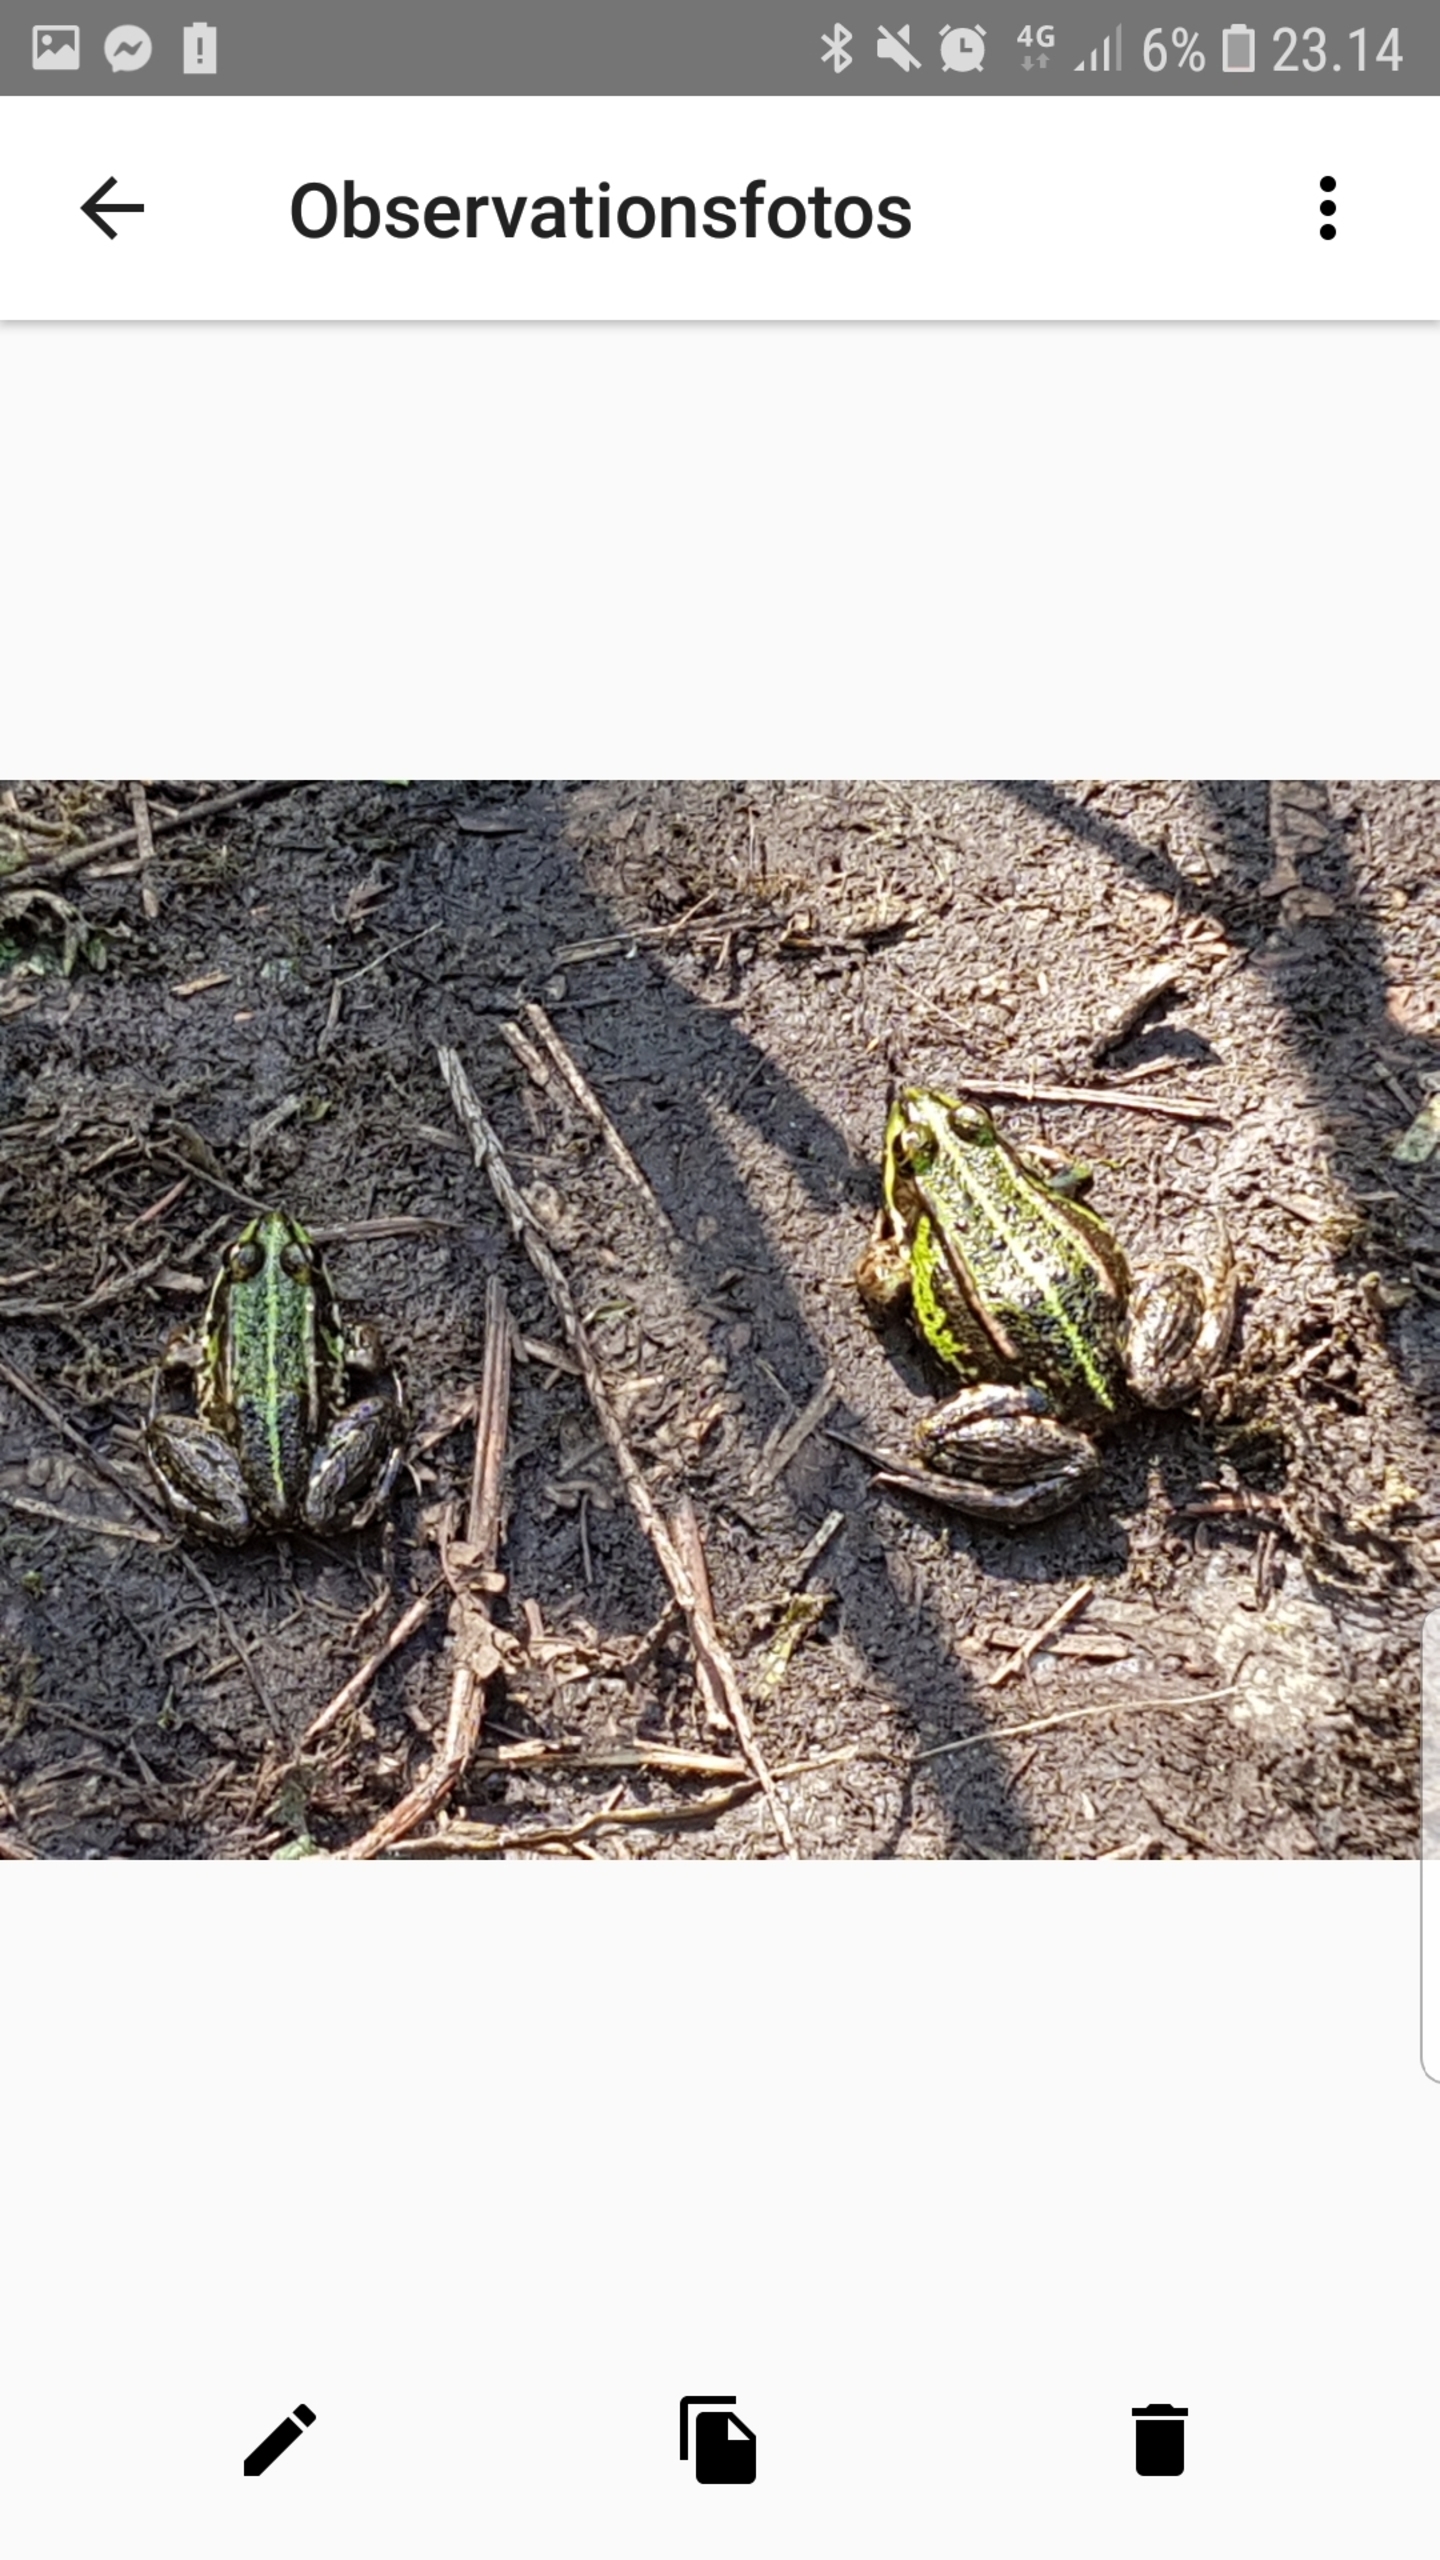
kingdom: Animalia
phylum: Chordata
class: Amphibia
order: Anura
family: Ranidae
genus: Pelophylax
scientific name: Pelophylax lessonae
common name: Grøn frø
